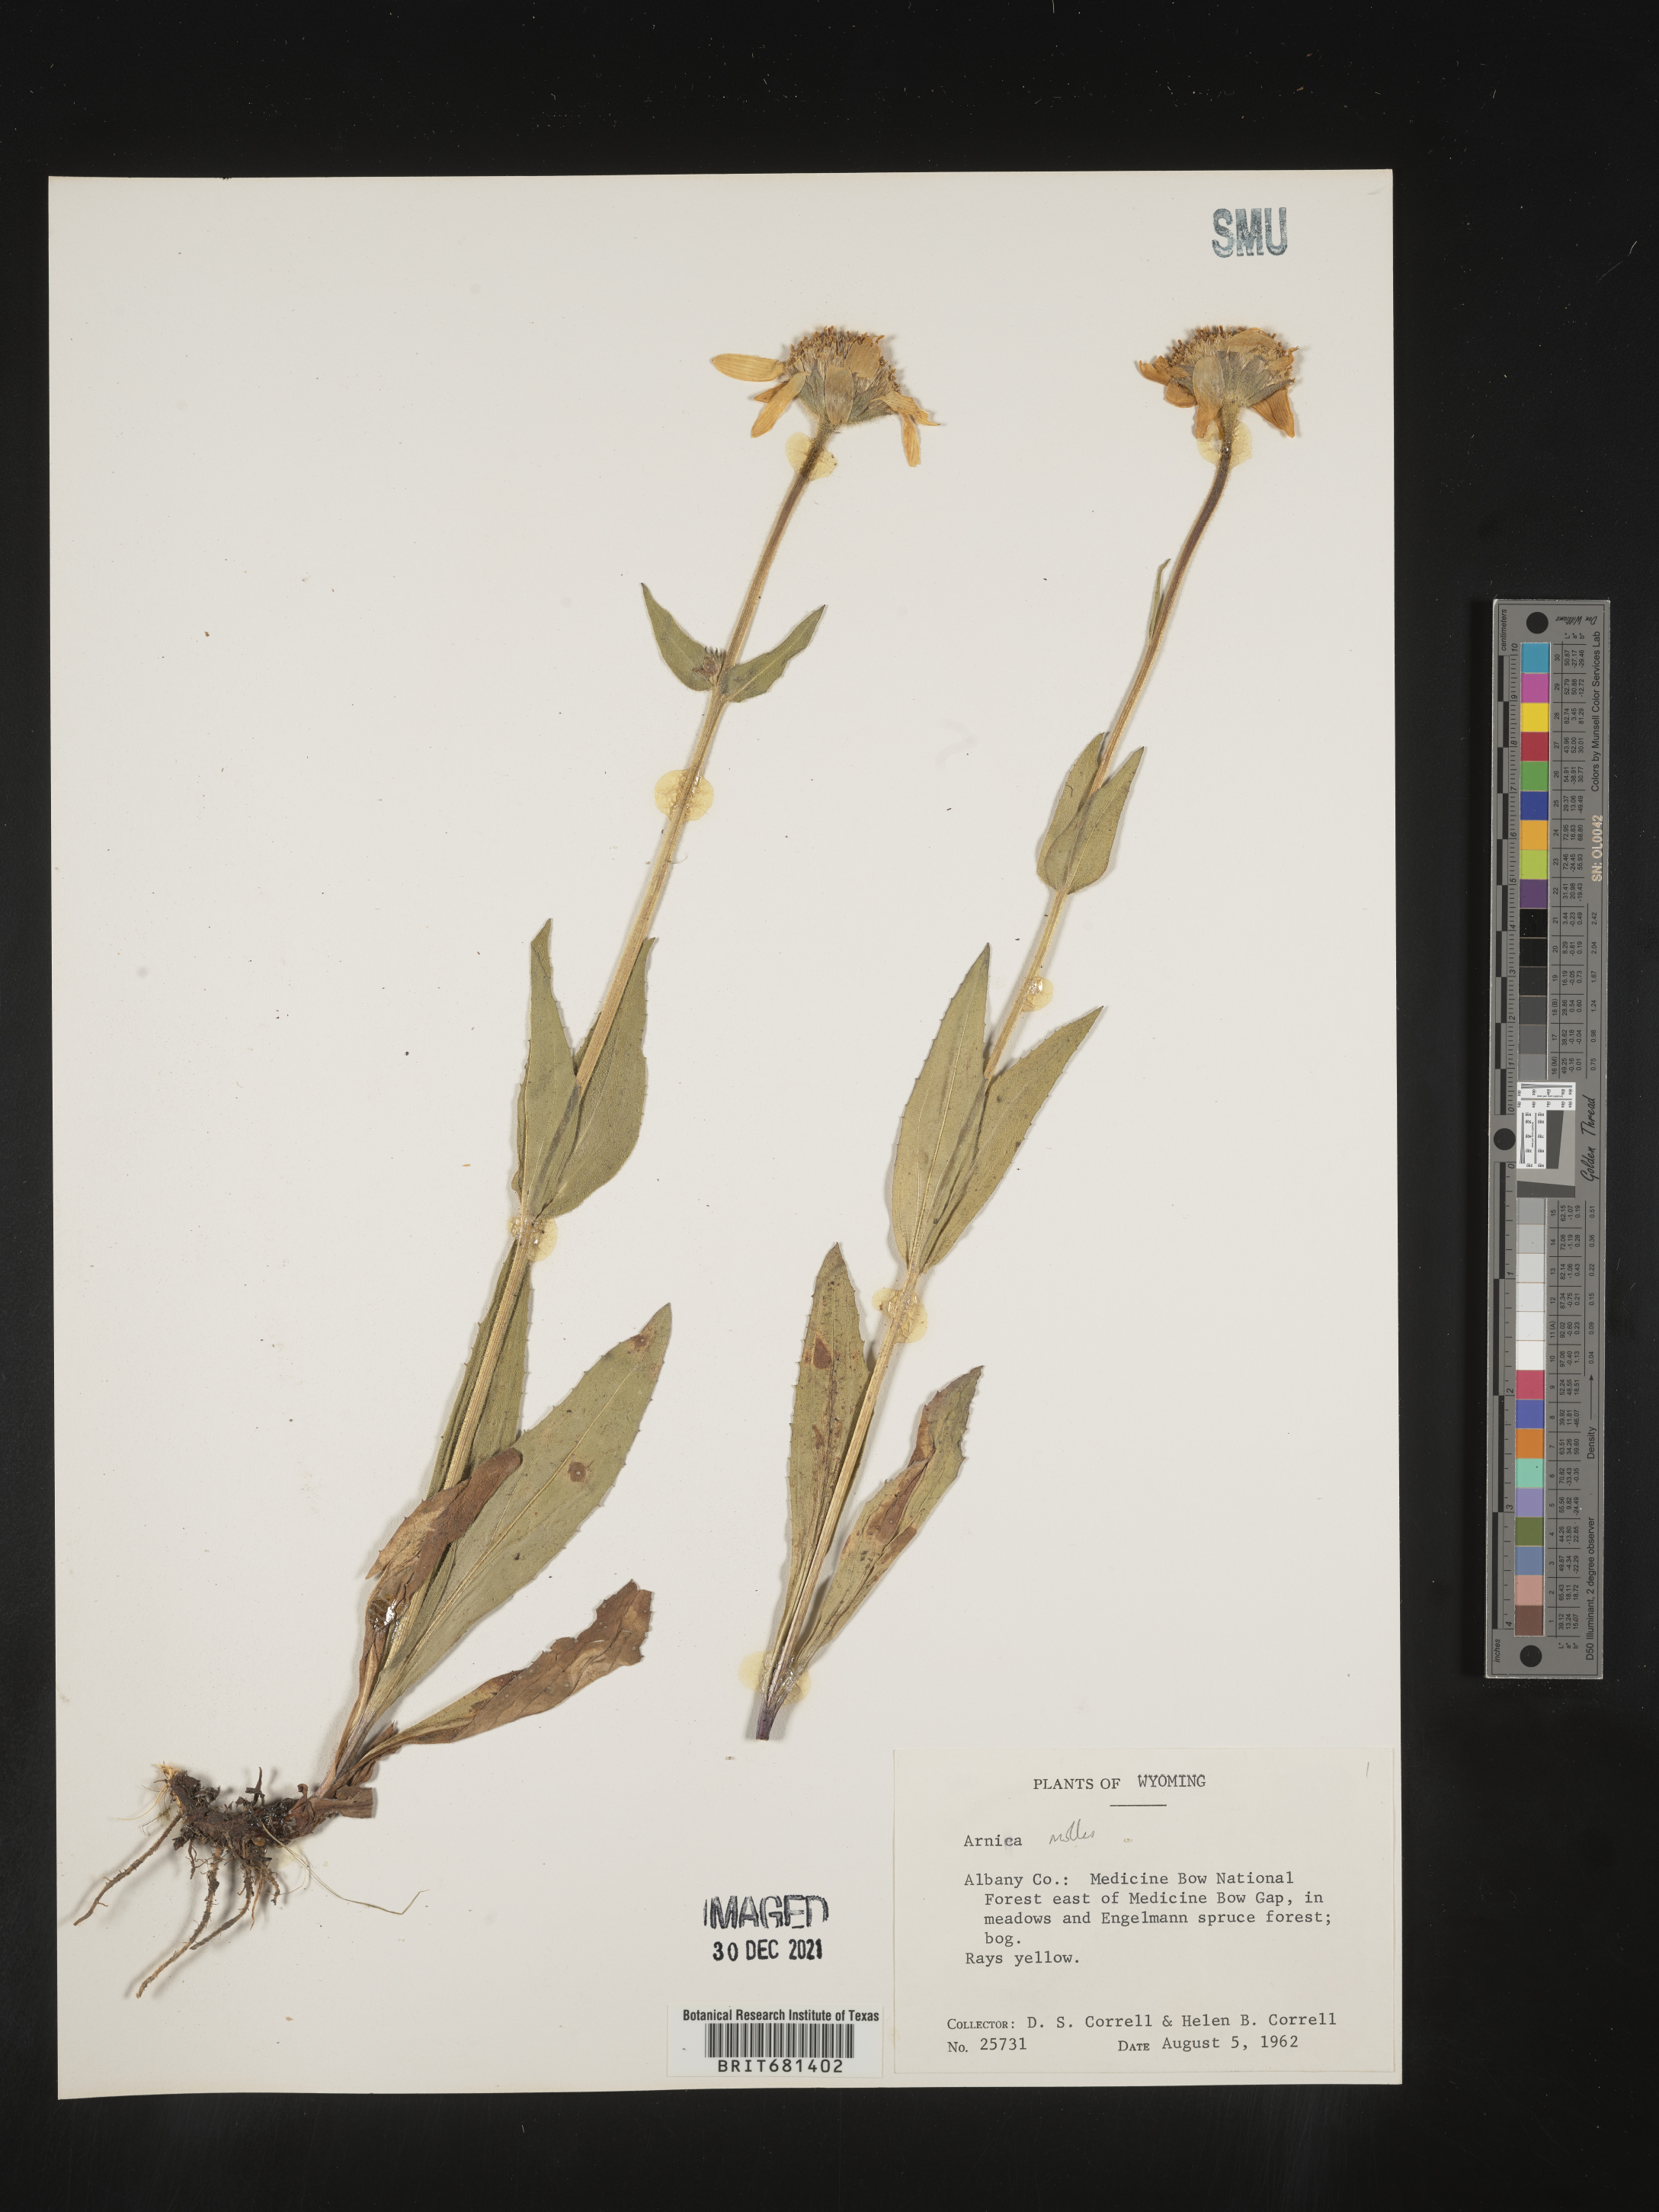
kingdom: Plantae
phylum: Tracheophyta
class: Magnoliopsida
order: Asterales
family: Asteraceae
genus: Arnica
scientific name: Arnica mollis
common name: Hairy arnica
